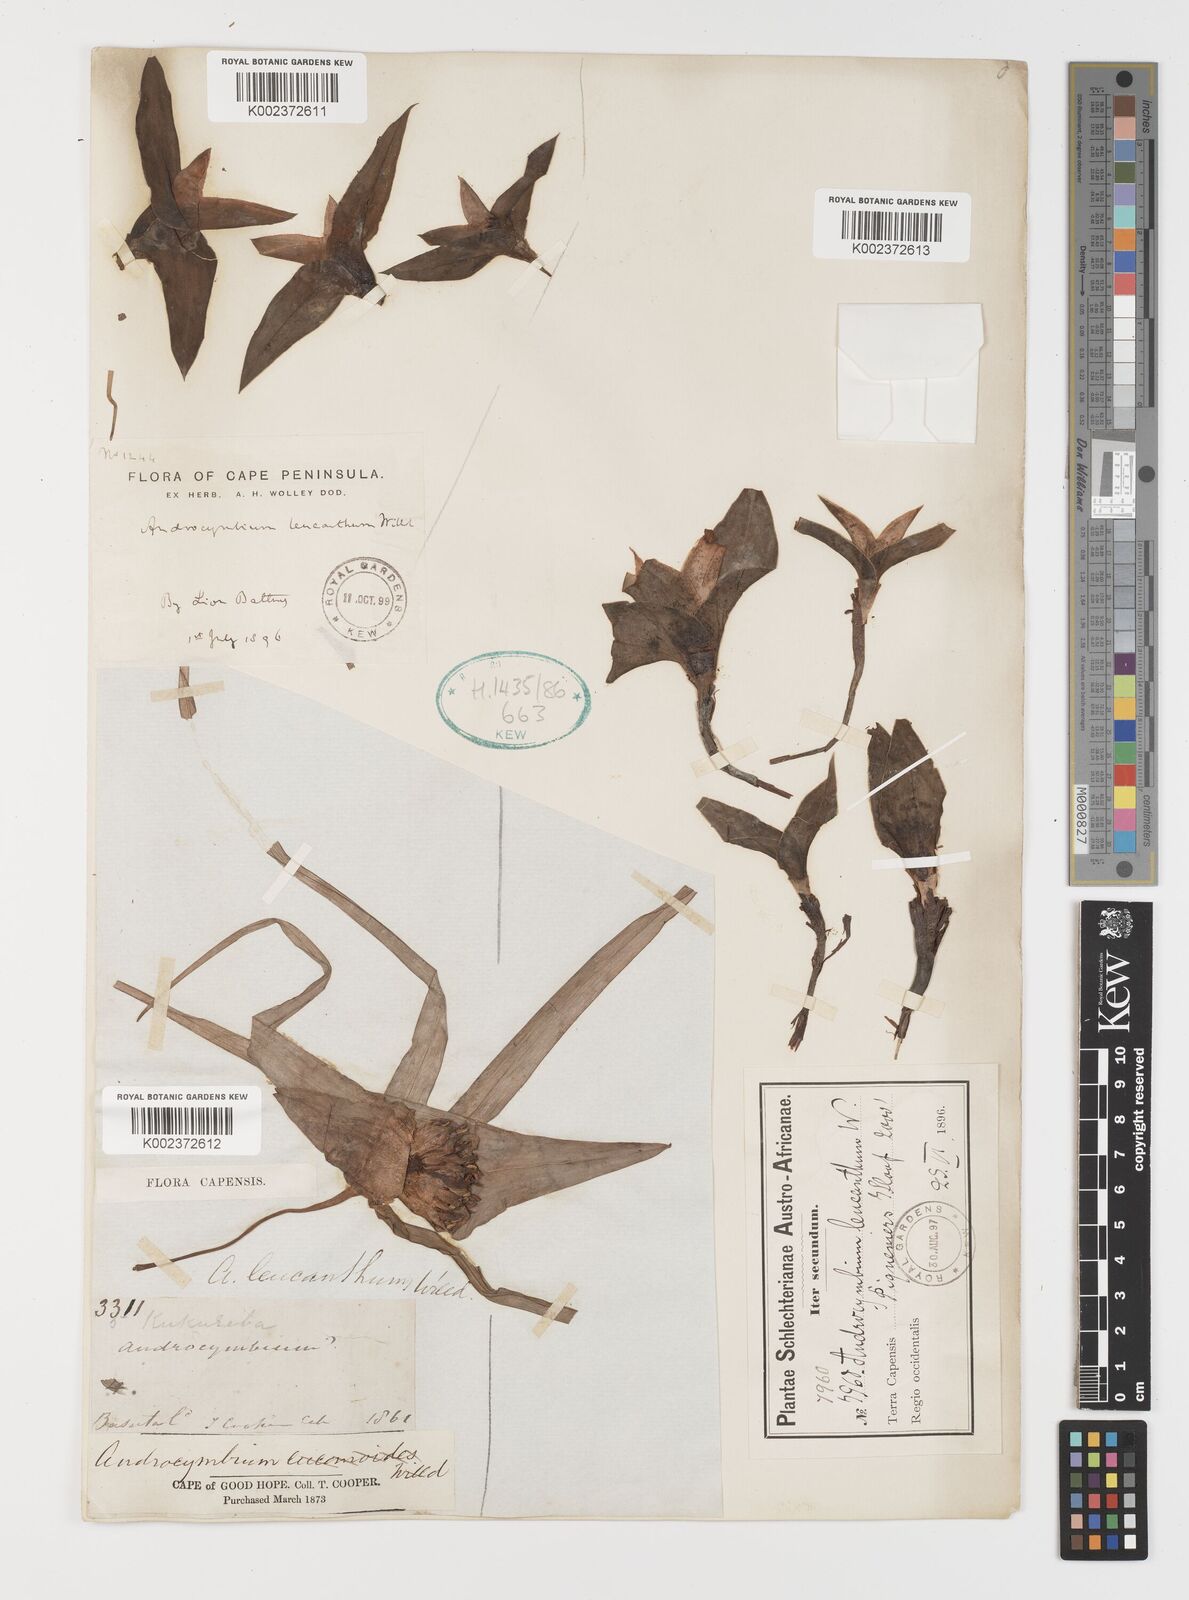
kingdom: Plantae
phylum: Tracheophyta
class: Liliopsida
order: Liliales
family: Colchicaceae
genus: Colchicum
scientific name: Colchicum capense
